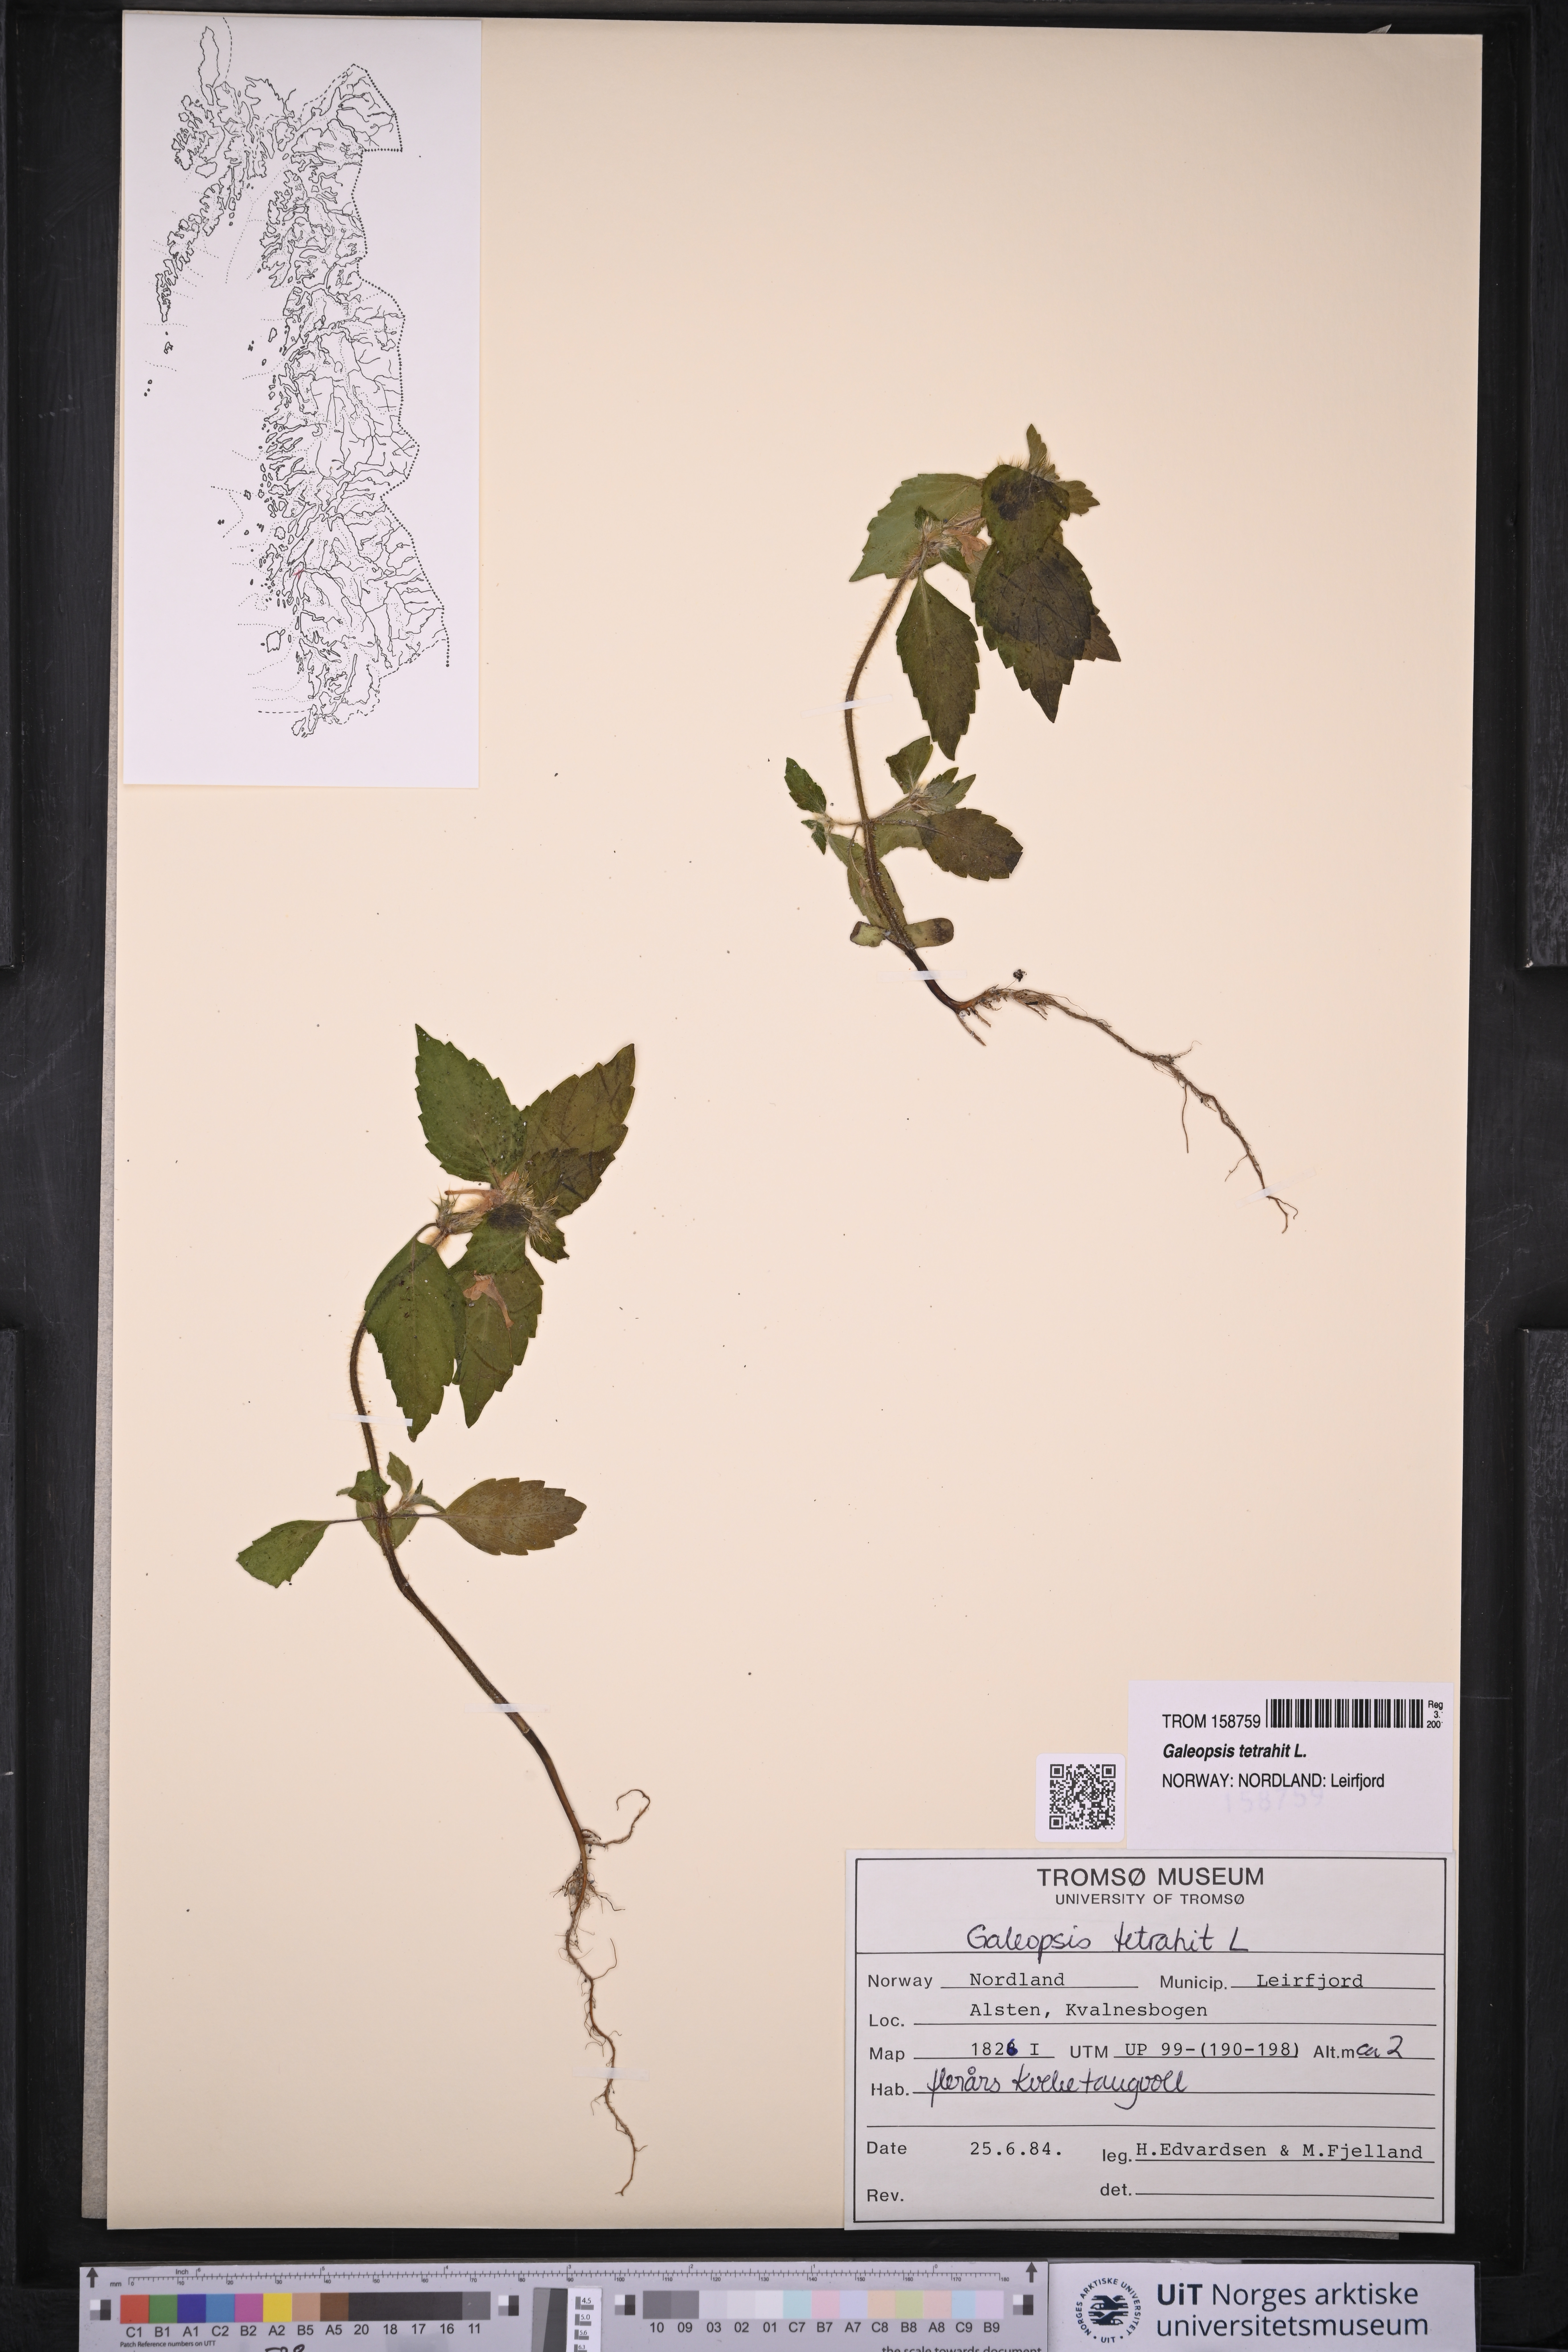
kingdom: Plantae
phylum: Tracheophyta
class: Magnoliopsida
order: Lamiales
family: Lamiaceae
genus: Galeopsis
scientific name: Galeopsis tetrahit
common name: Common hemp-nettle
